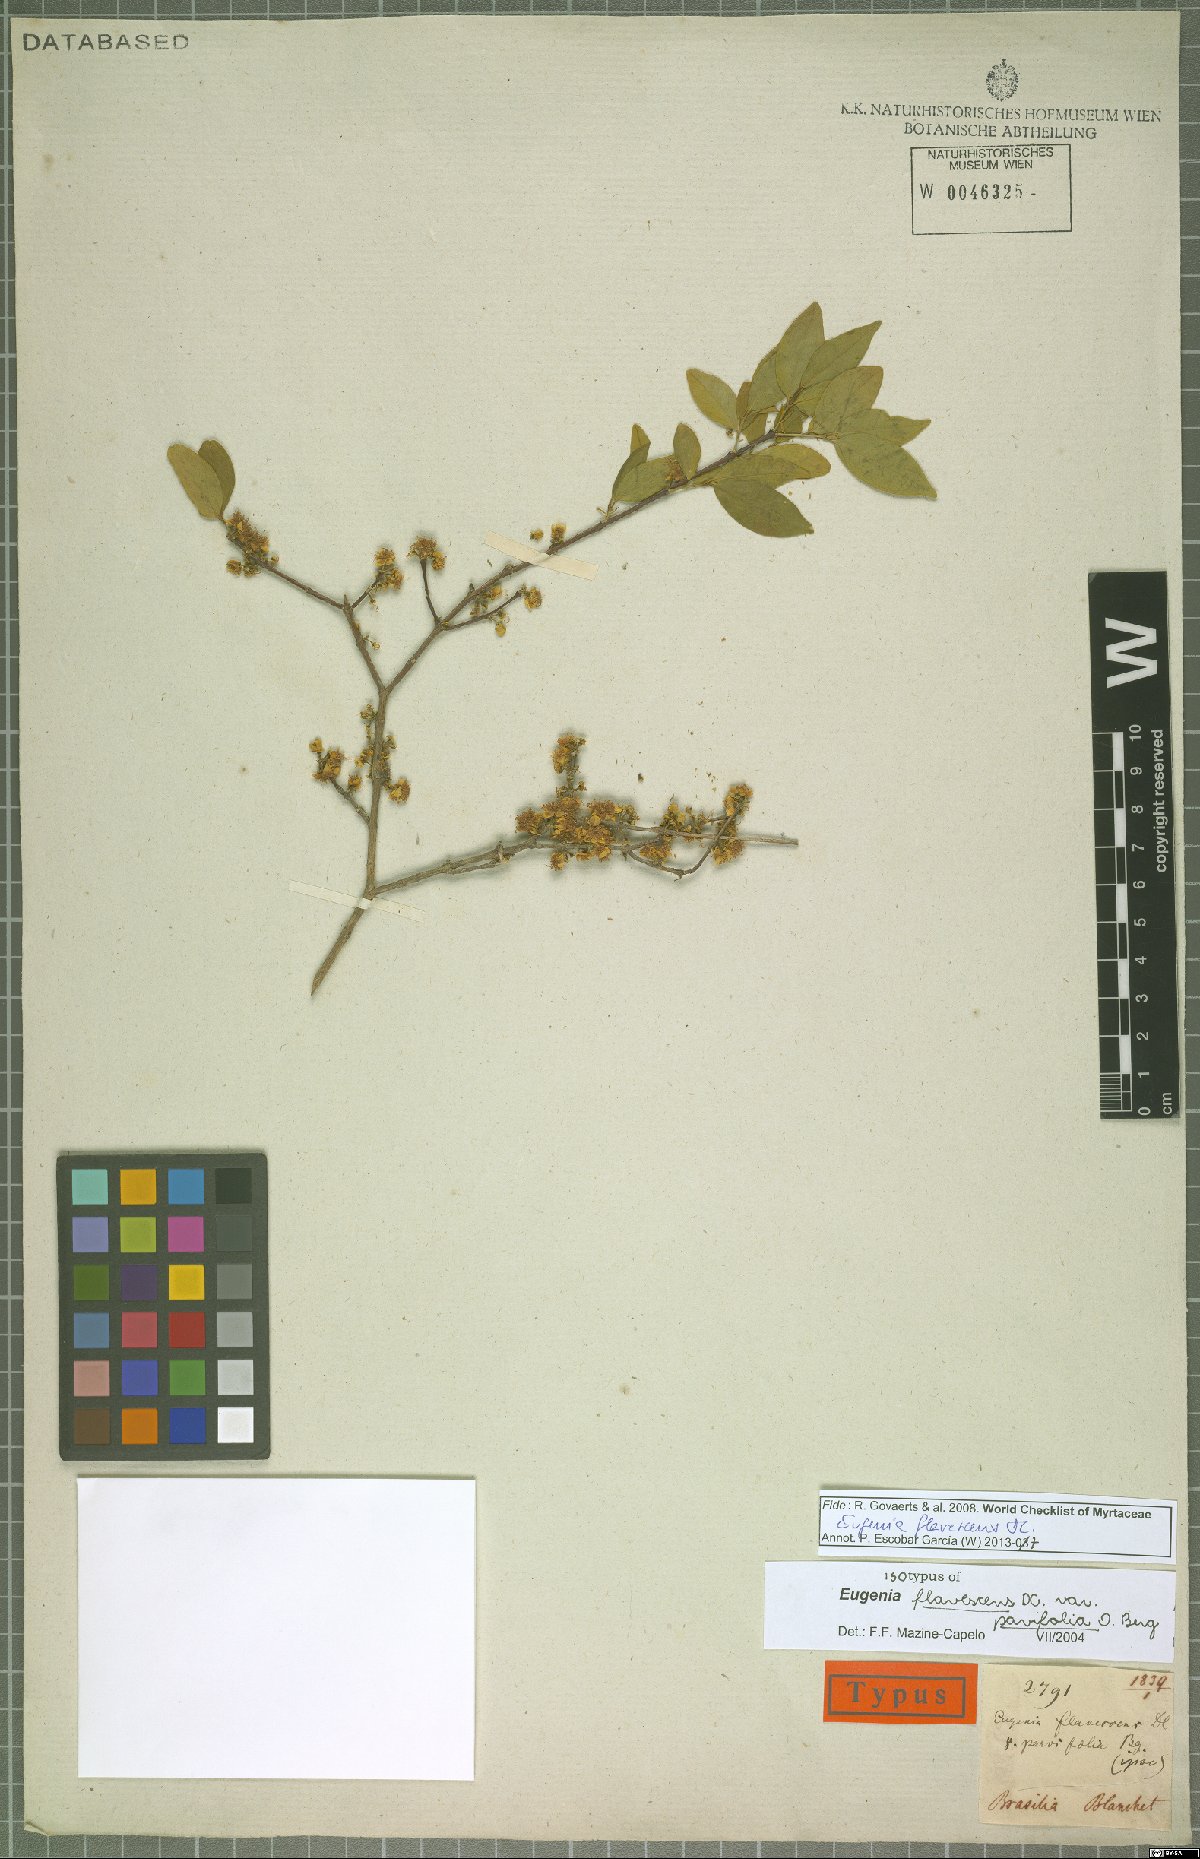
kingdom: Plantae
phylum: Tracheophyta
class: Magnoliopsida
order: Myrtales
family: Myrtaceae
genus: Eugenia
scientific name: Eugenia flavescens
